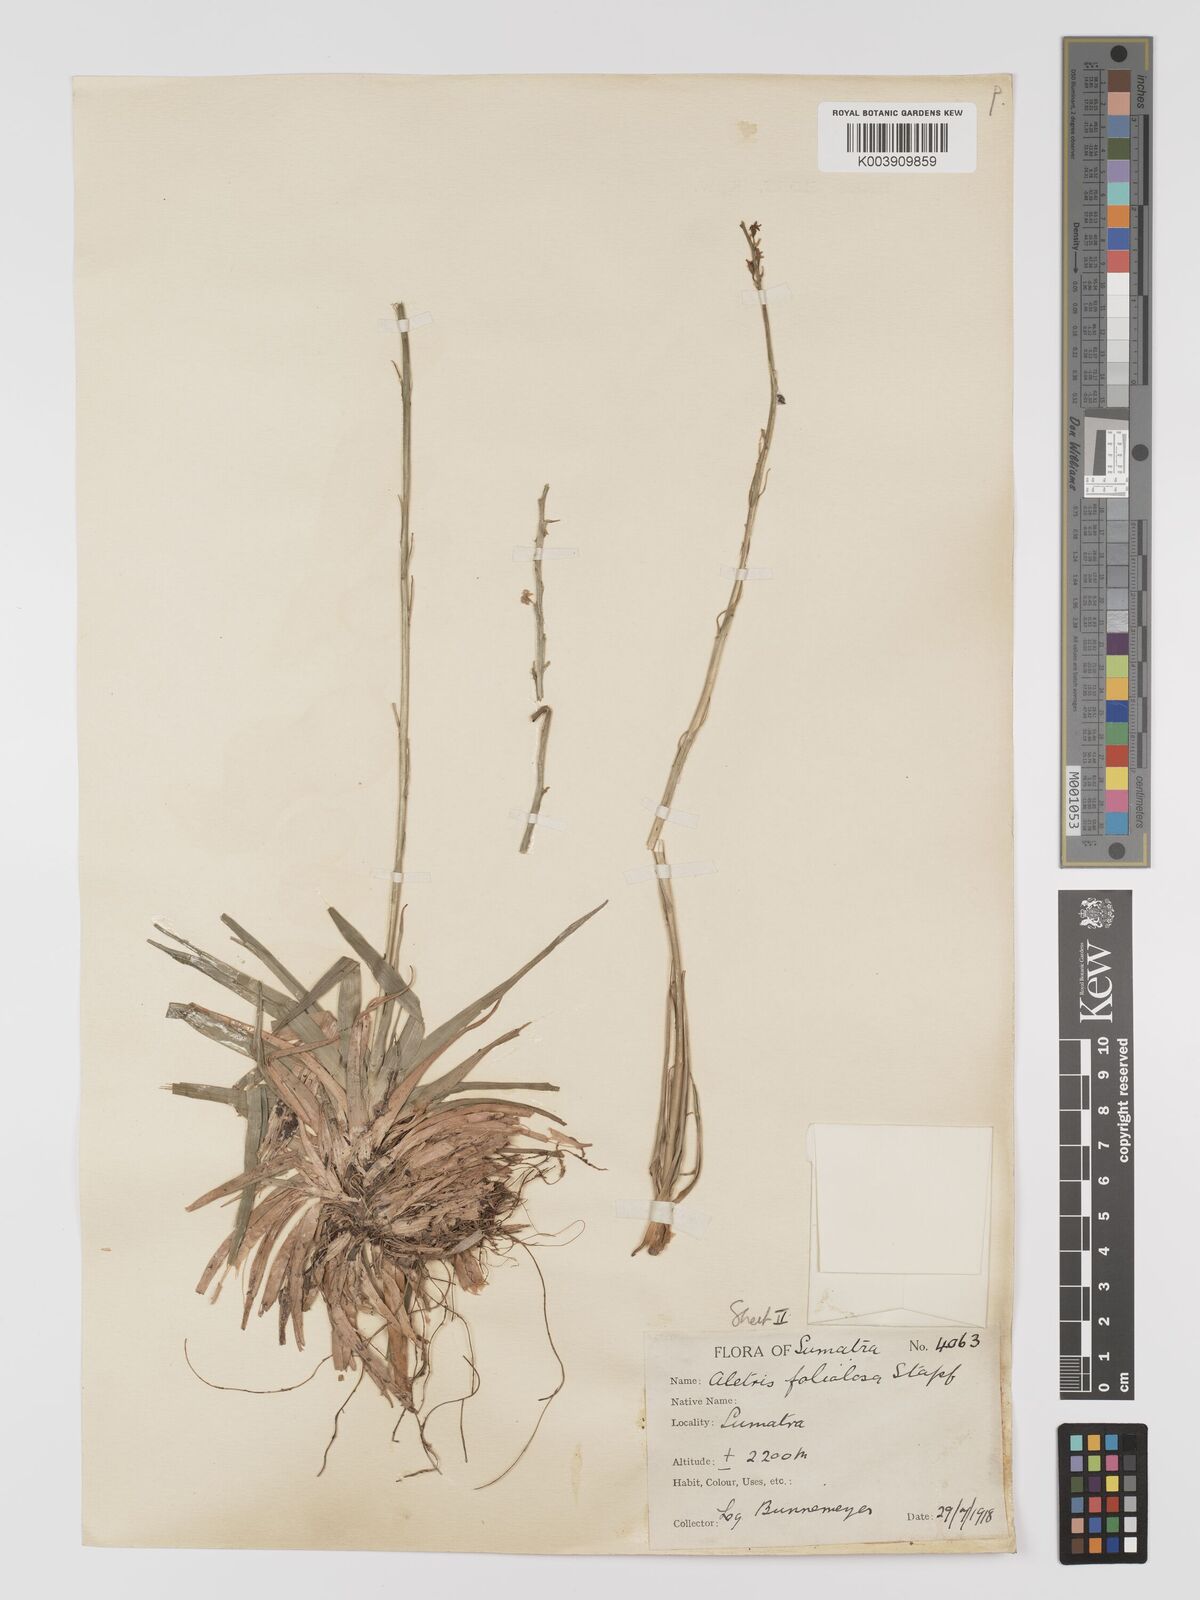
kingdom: Plantae
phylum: Tracheophyta
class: Liliopsida
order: Dioscoreales
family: Nartheciaceae
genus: Aletris
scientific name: Aletris foliolosa
